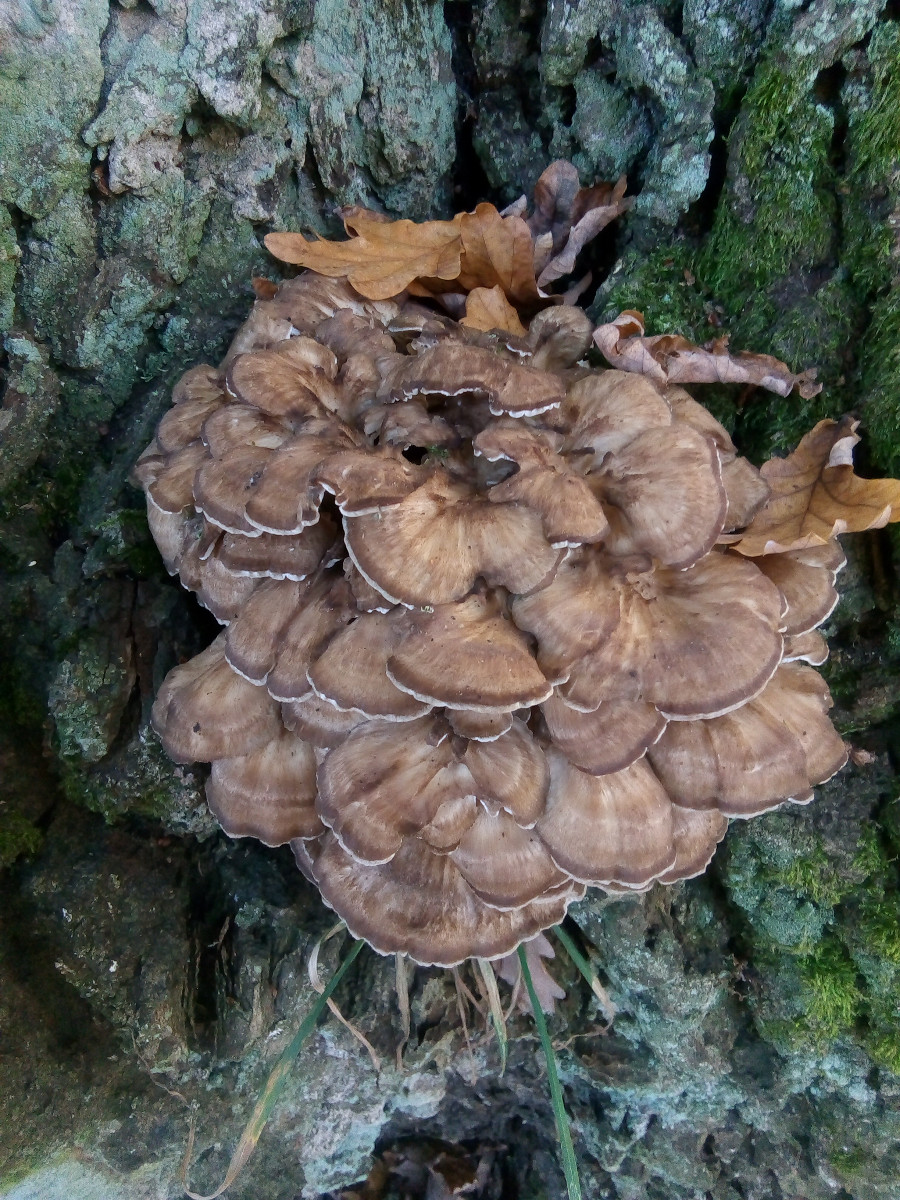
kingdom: Fungi
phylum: Basidiomycota
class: Agaricomycetes
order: Polyporales
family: Grifolaceae
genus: Grifola
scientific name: Grifola frondosa
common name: tueporesvamp
